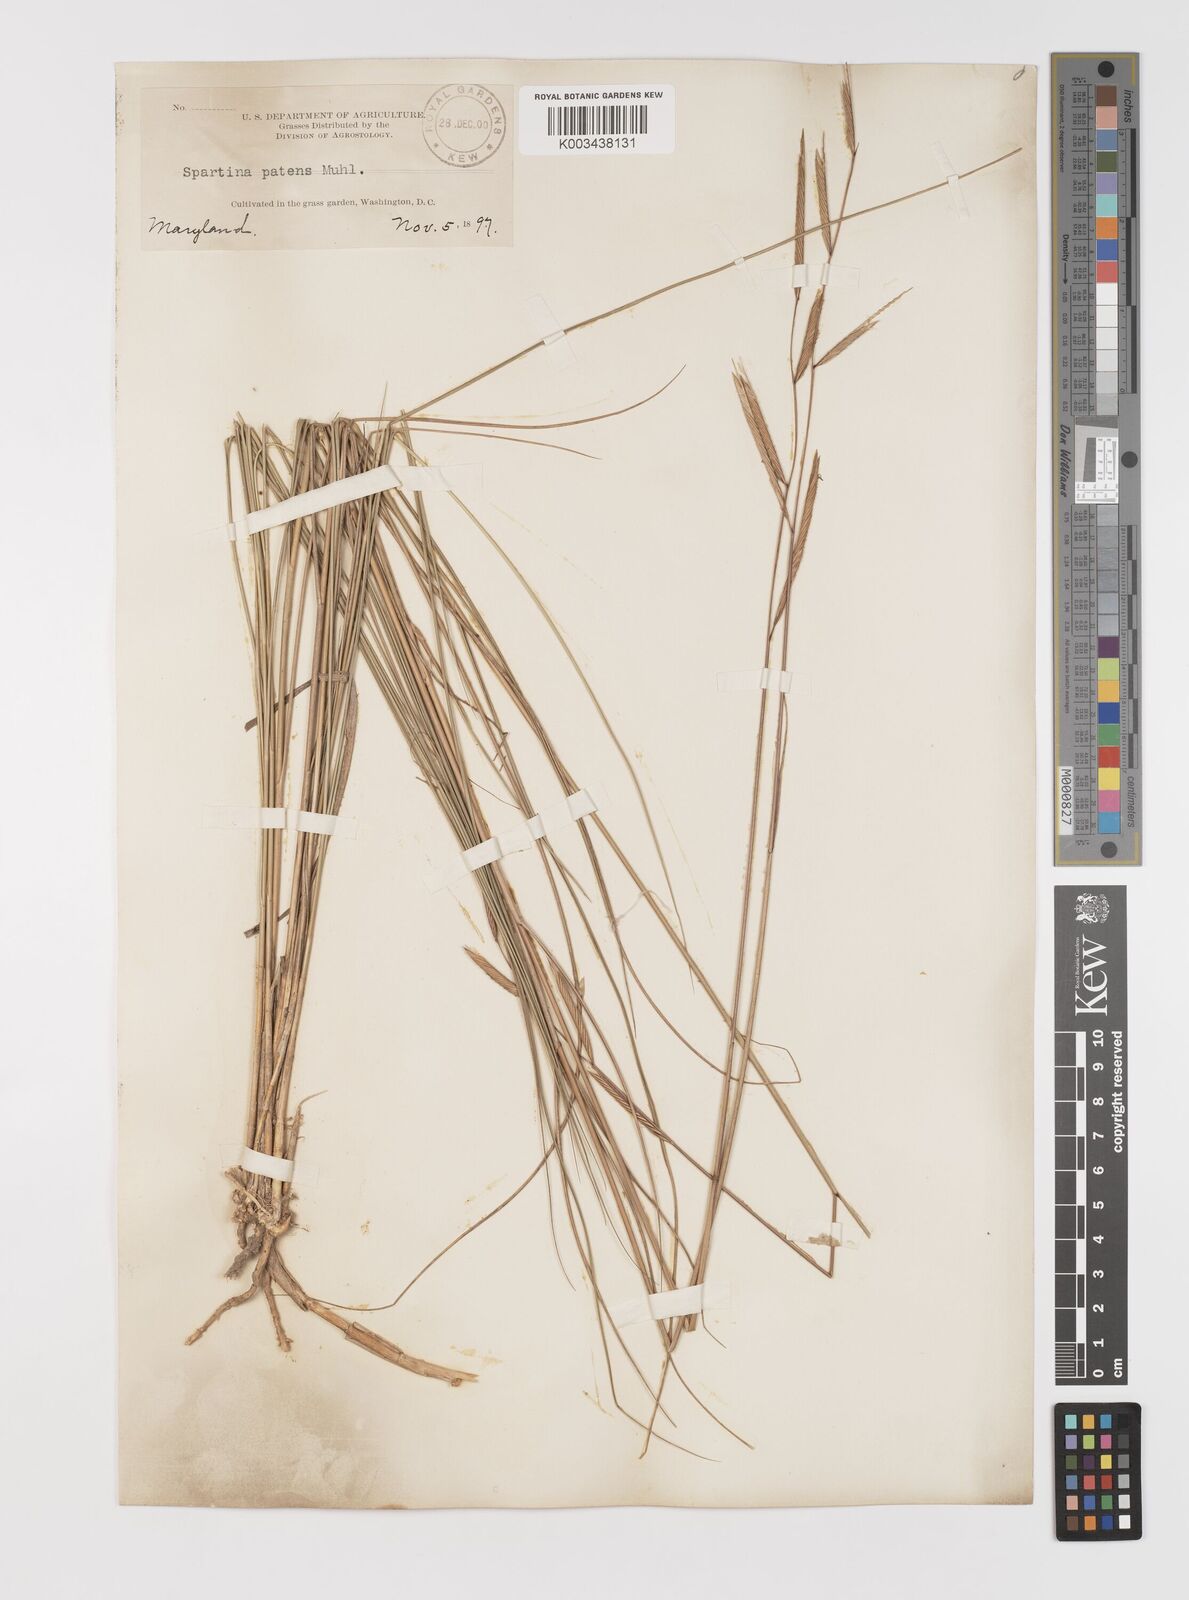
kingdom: Plantae
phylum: Tracheophyta
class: Liliopsida
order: Poales
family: Poaceae
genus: Sporobolus
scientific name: Sporobolus pumilus
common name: Highwater grass
